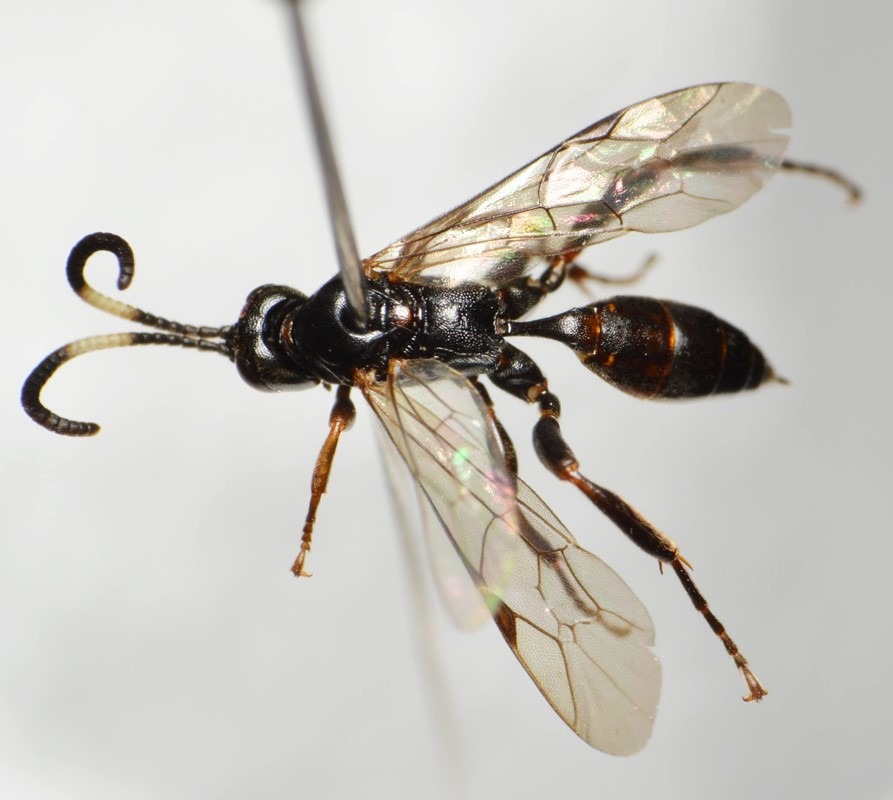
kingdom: Animalia
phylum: Arthropoda
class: Insecta
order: Hymenoptera
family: Ichneumonidae
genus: Cratichneumon
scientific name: Cratichneumon rufifrons
